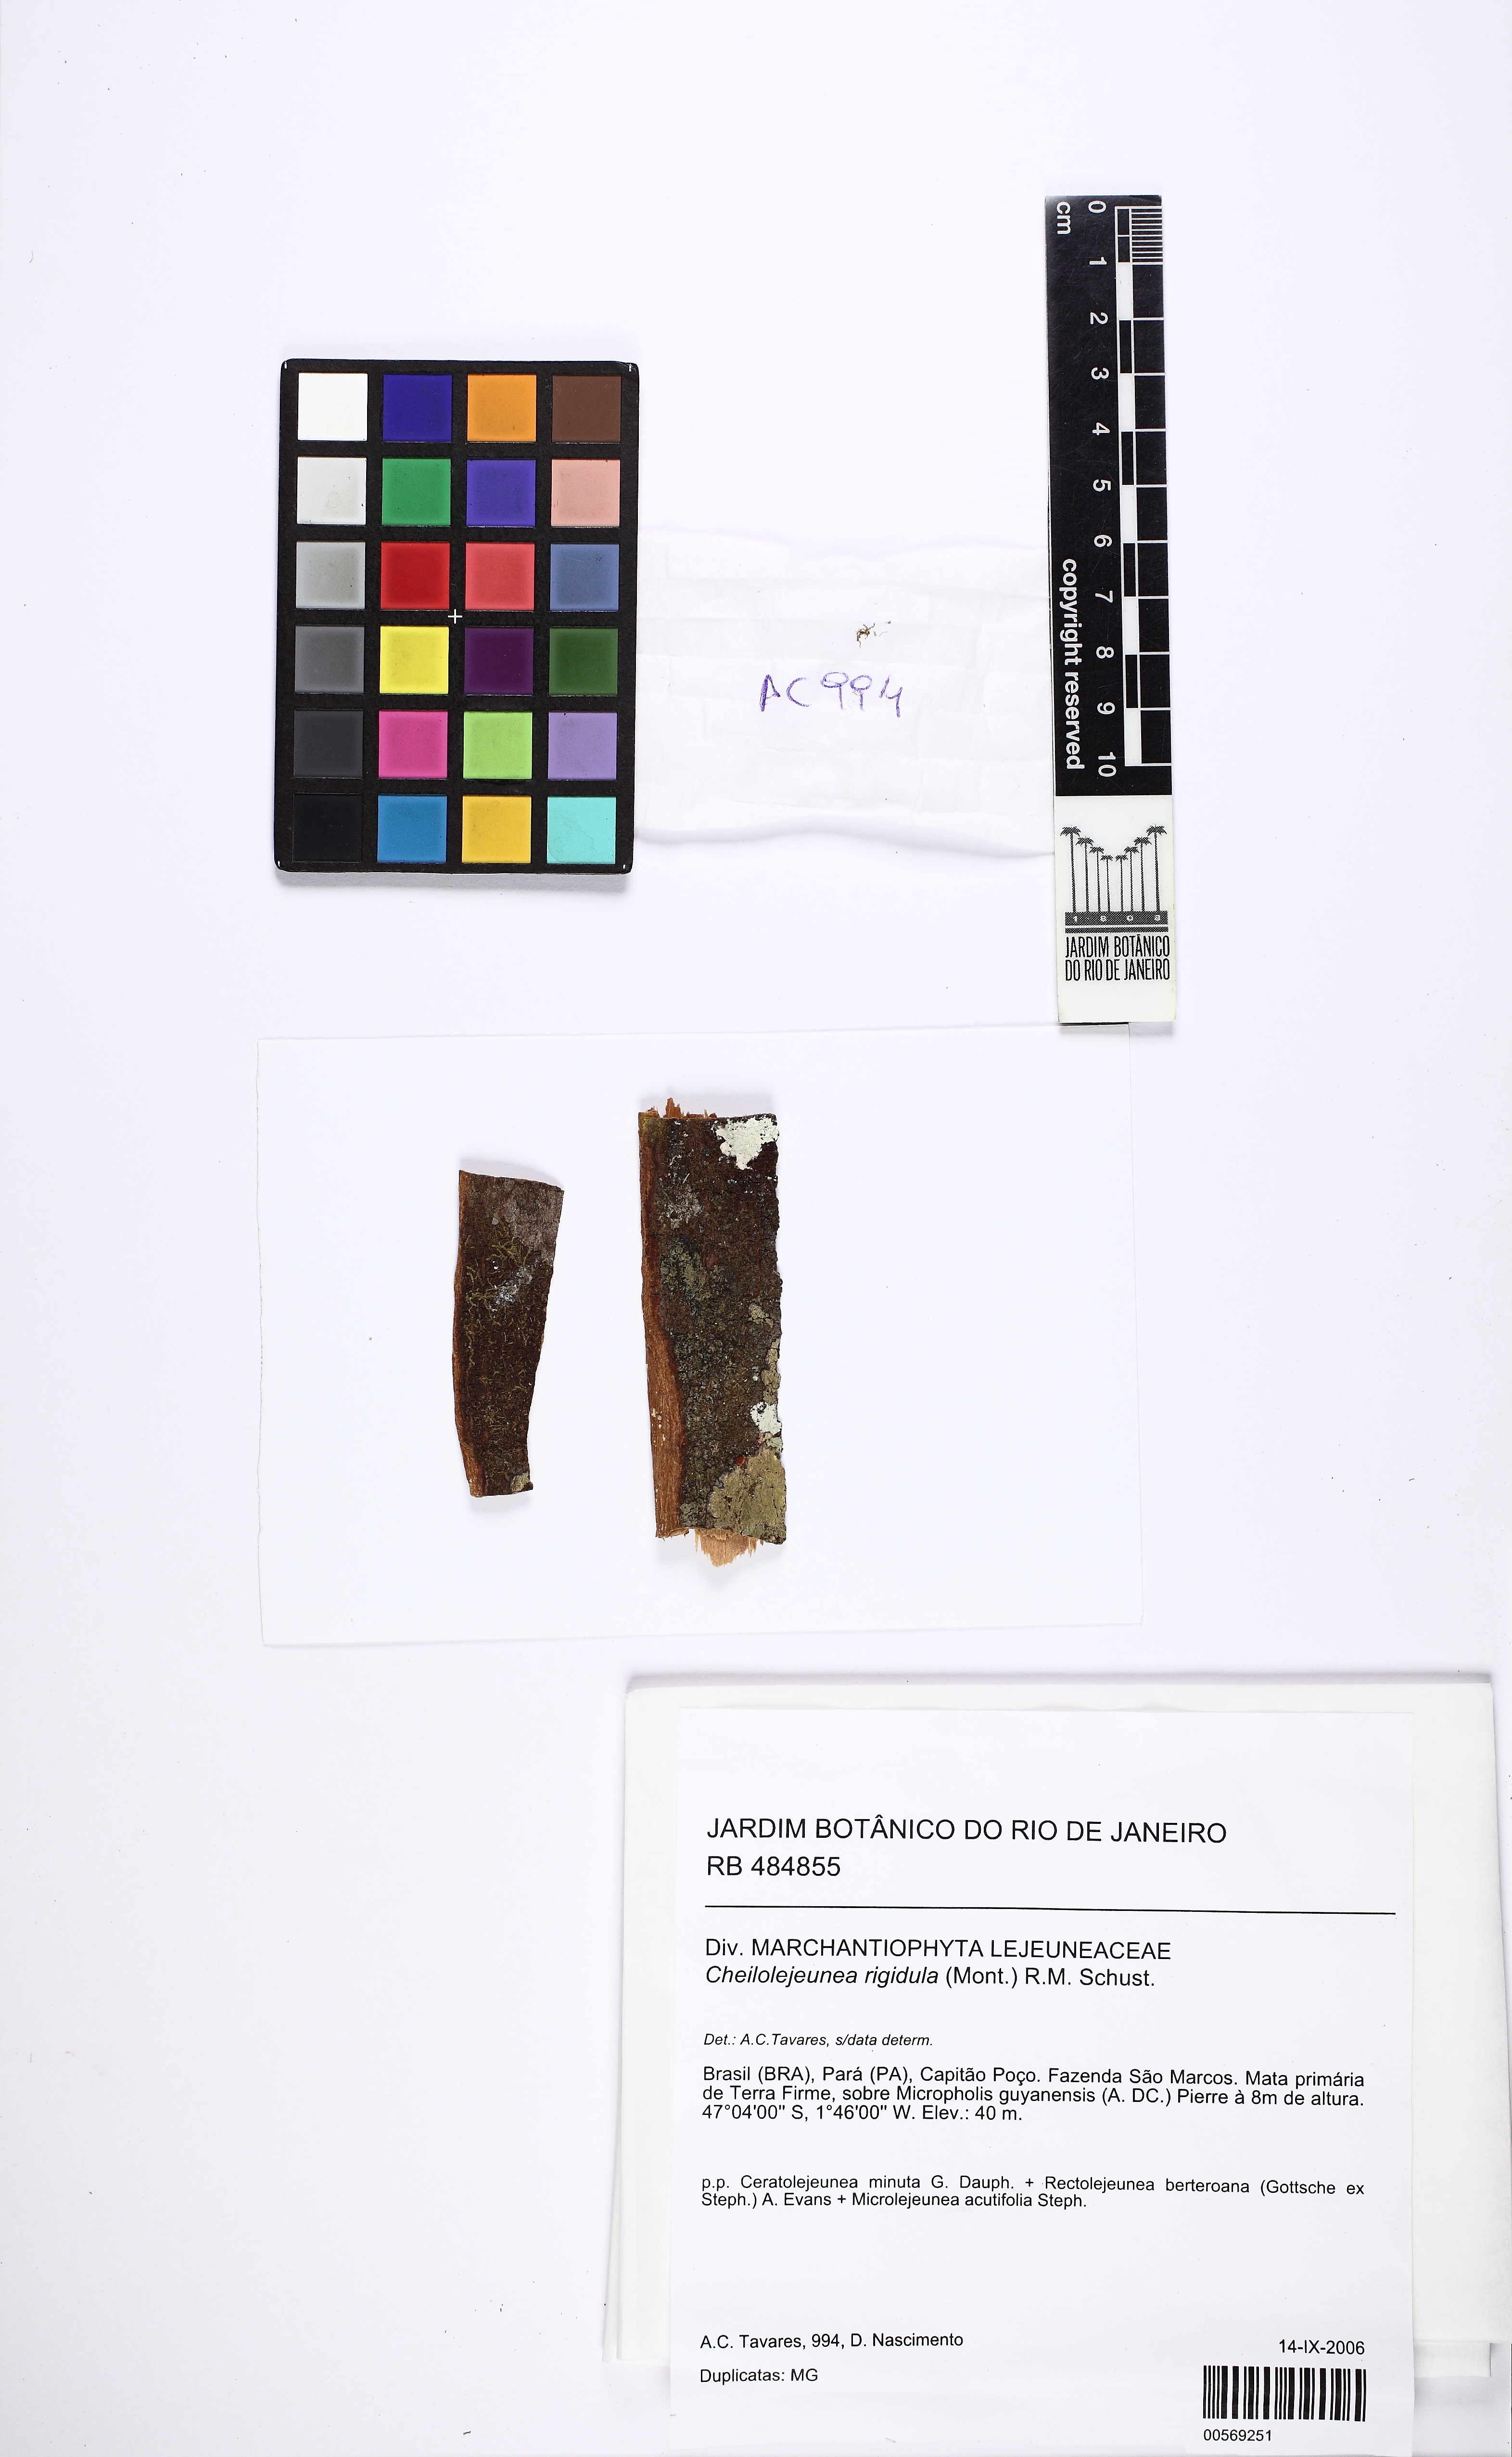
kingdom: Plantae
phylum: Marchantiophyta
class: Jungermanniopsida
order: Porellales
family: Lejeuneaceae
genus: Cheilolejeunea
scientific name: Cheilolejeunea rigidula
